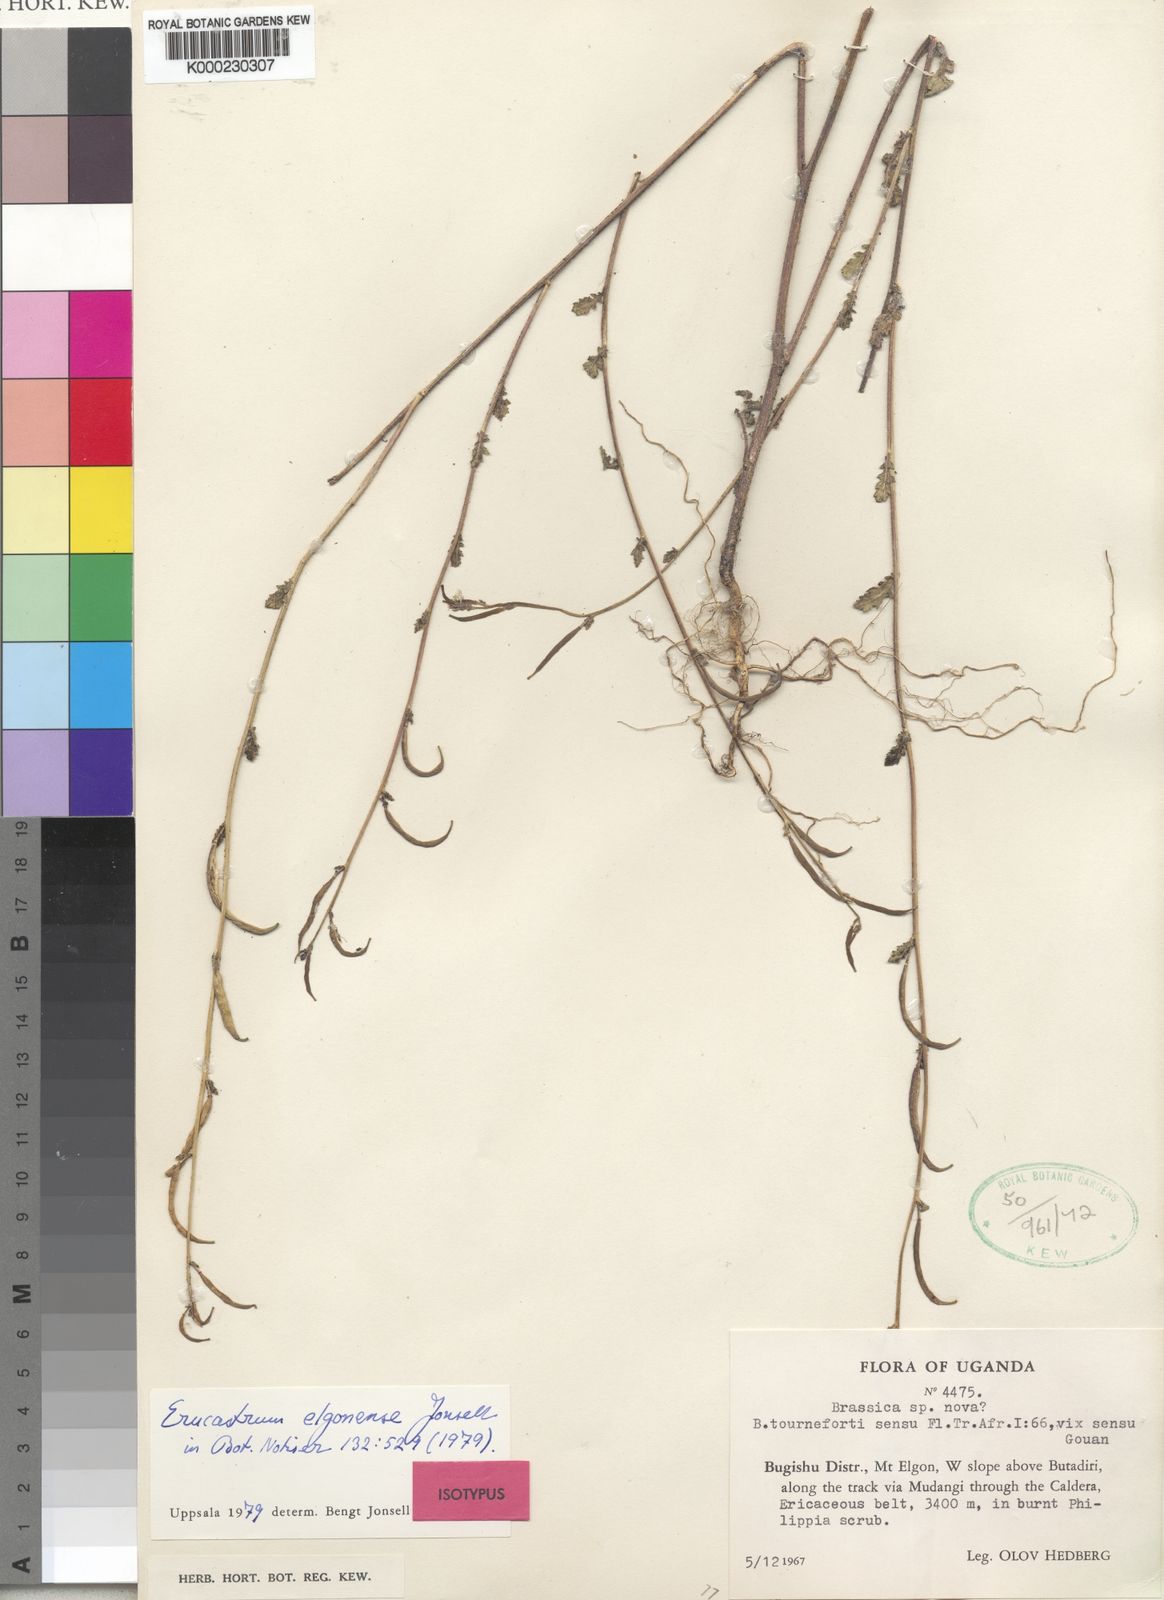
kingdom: Plantae
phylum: Tracheophyta
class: Magnoliopsida
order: Brassicales
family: Brassicaceae
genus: Erucastrum
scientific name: Erucastrum elgonense
